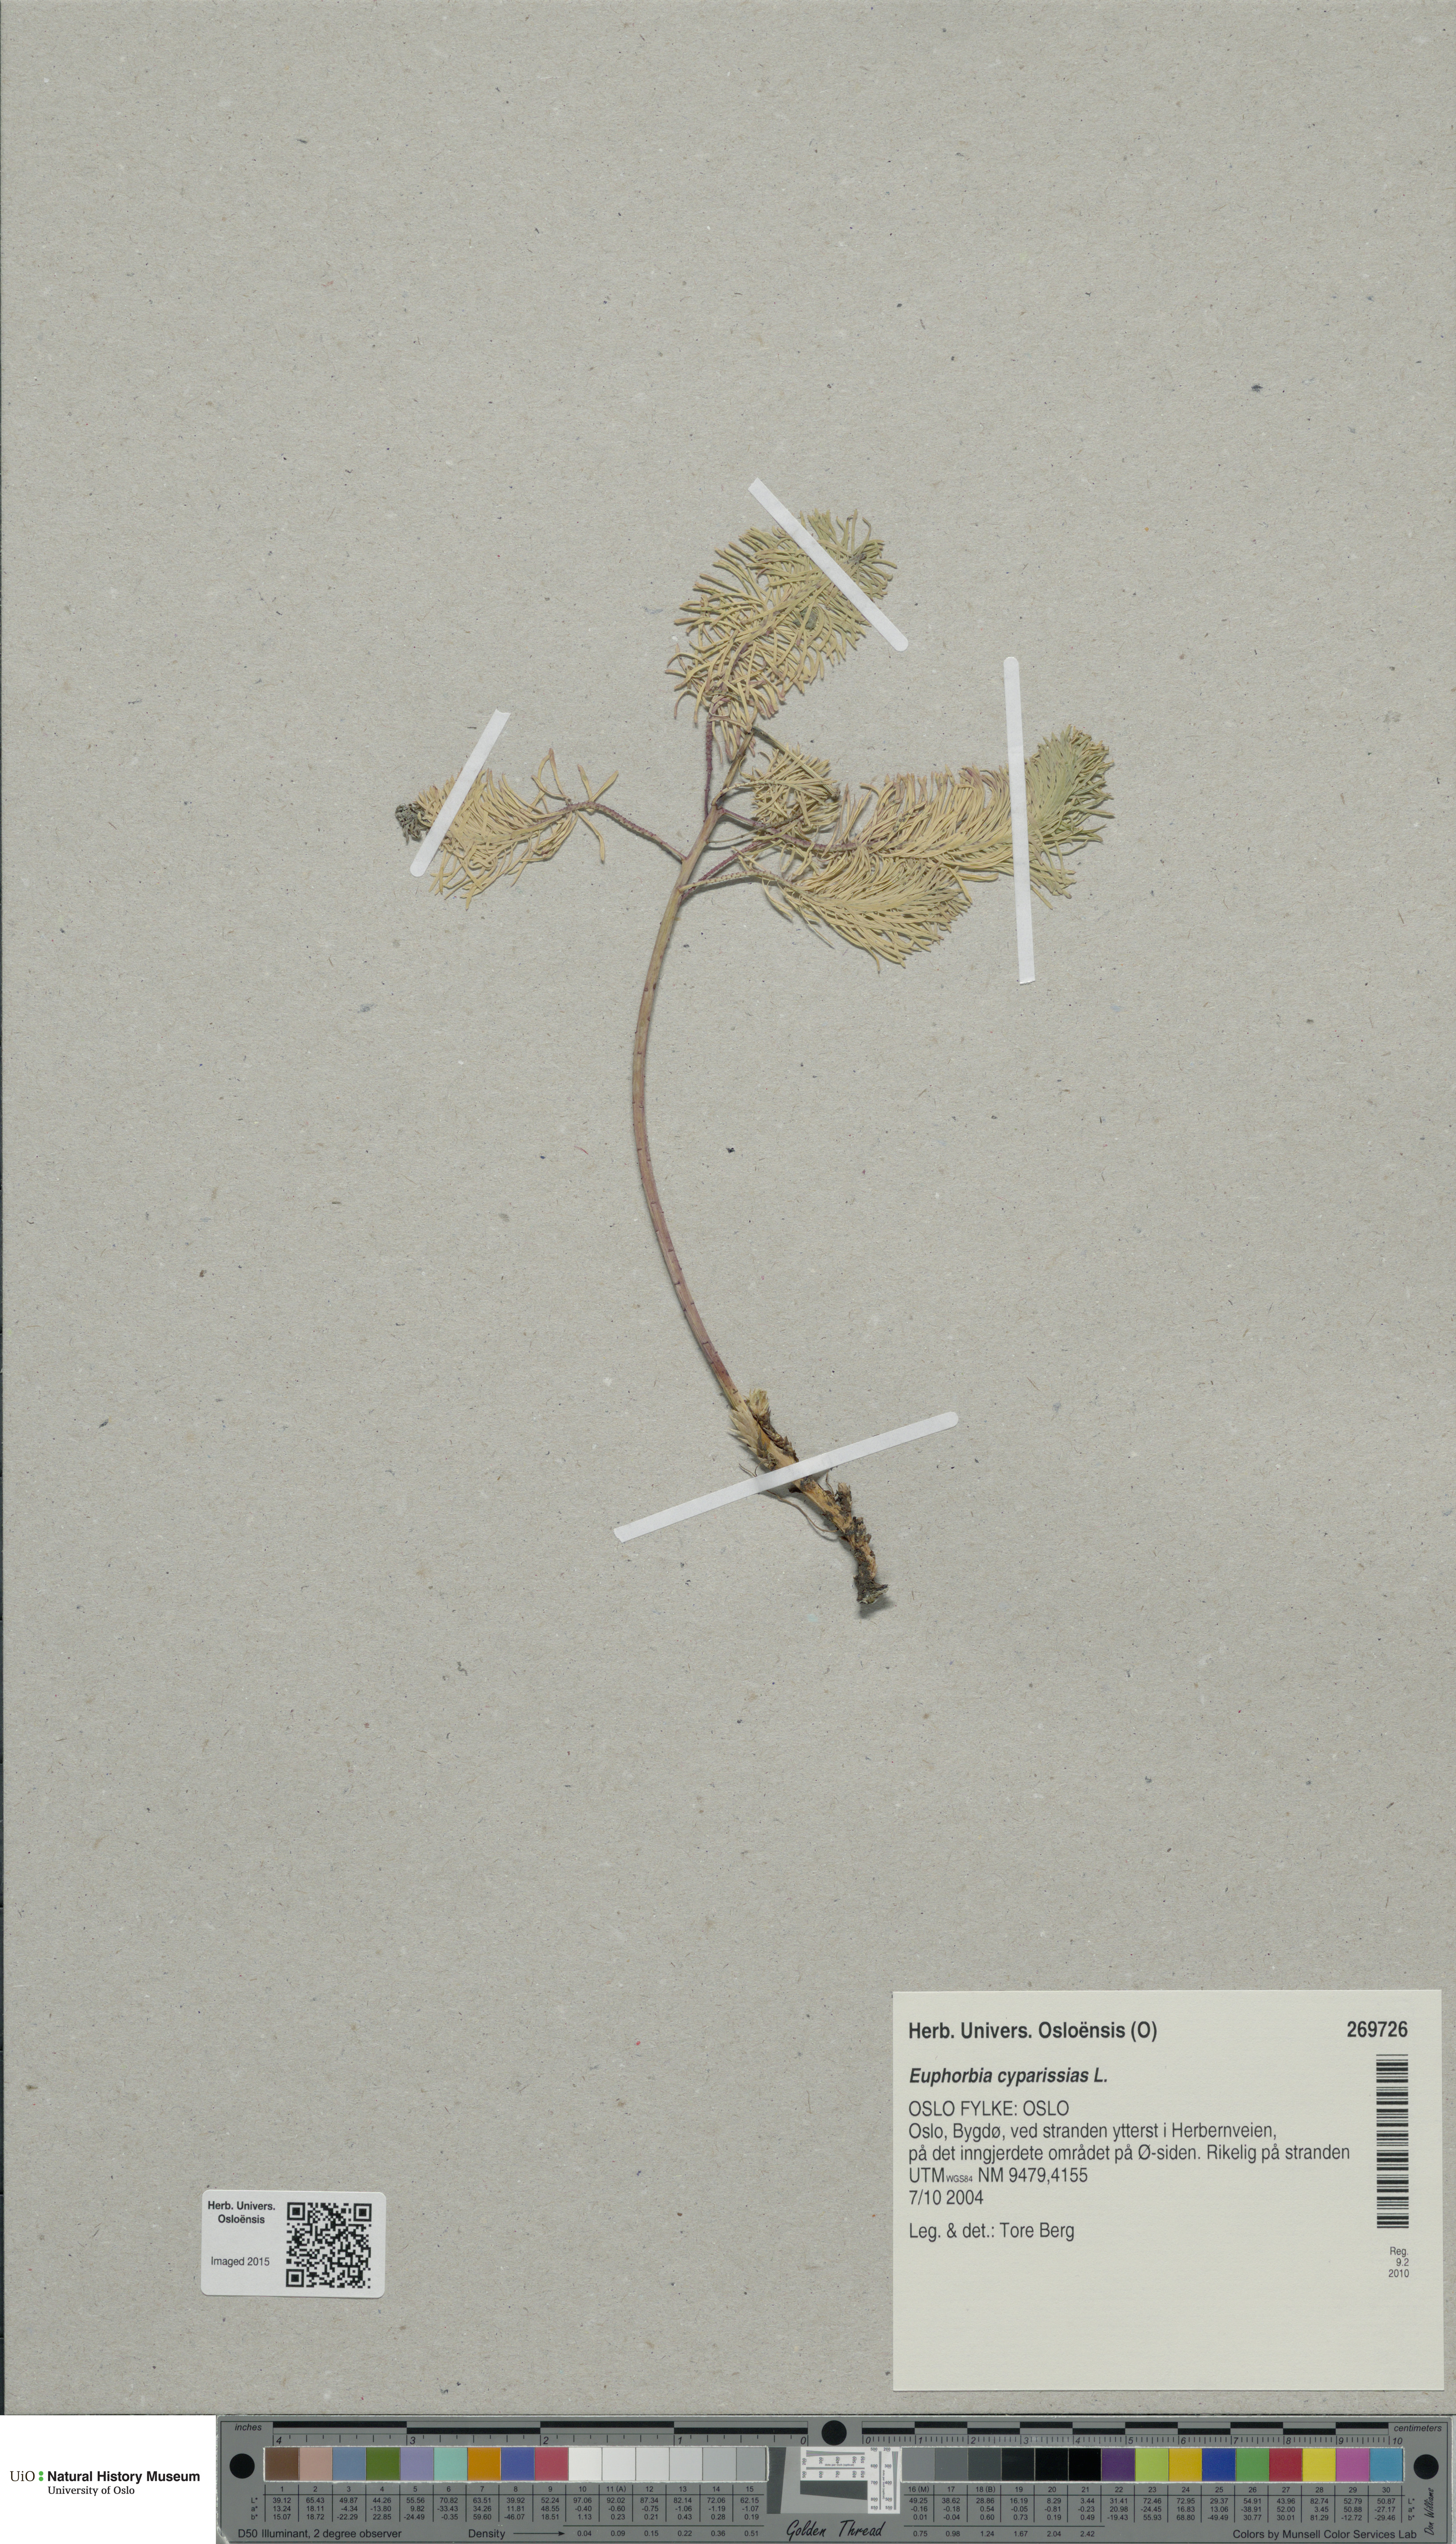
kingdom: Plantae
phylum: Tracheophyta
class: Magnoliopsida
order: Malpighiales
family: Euphorbiaceae
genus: Euphorbia
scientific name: Euphorbia cyparissias
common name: Cypress spurge
